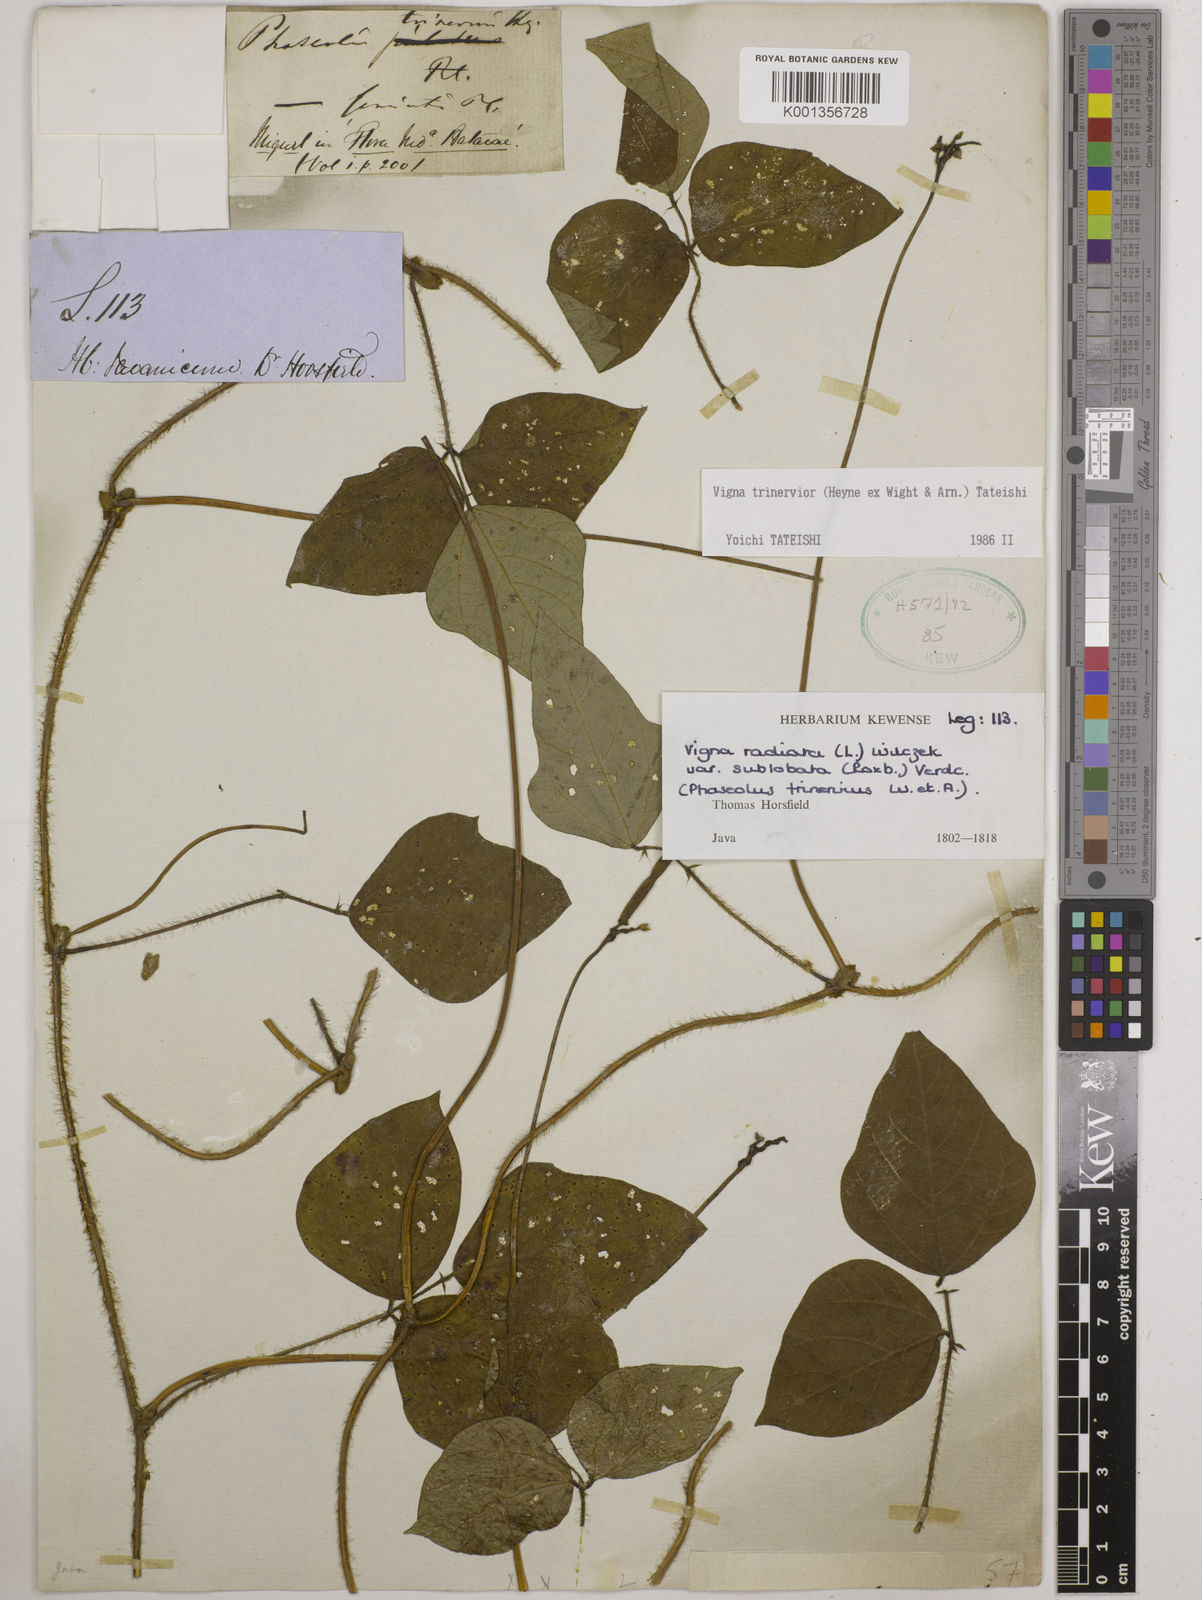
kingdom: Plantae
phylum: Tracheophyta
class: Magnoliopsida
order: Fabales
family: Fabaceae
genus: Vigna
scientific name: Vigna
